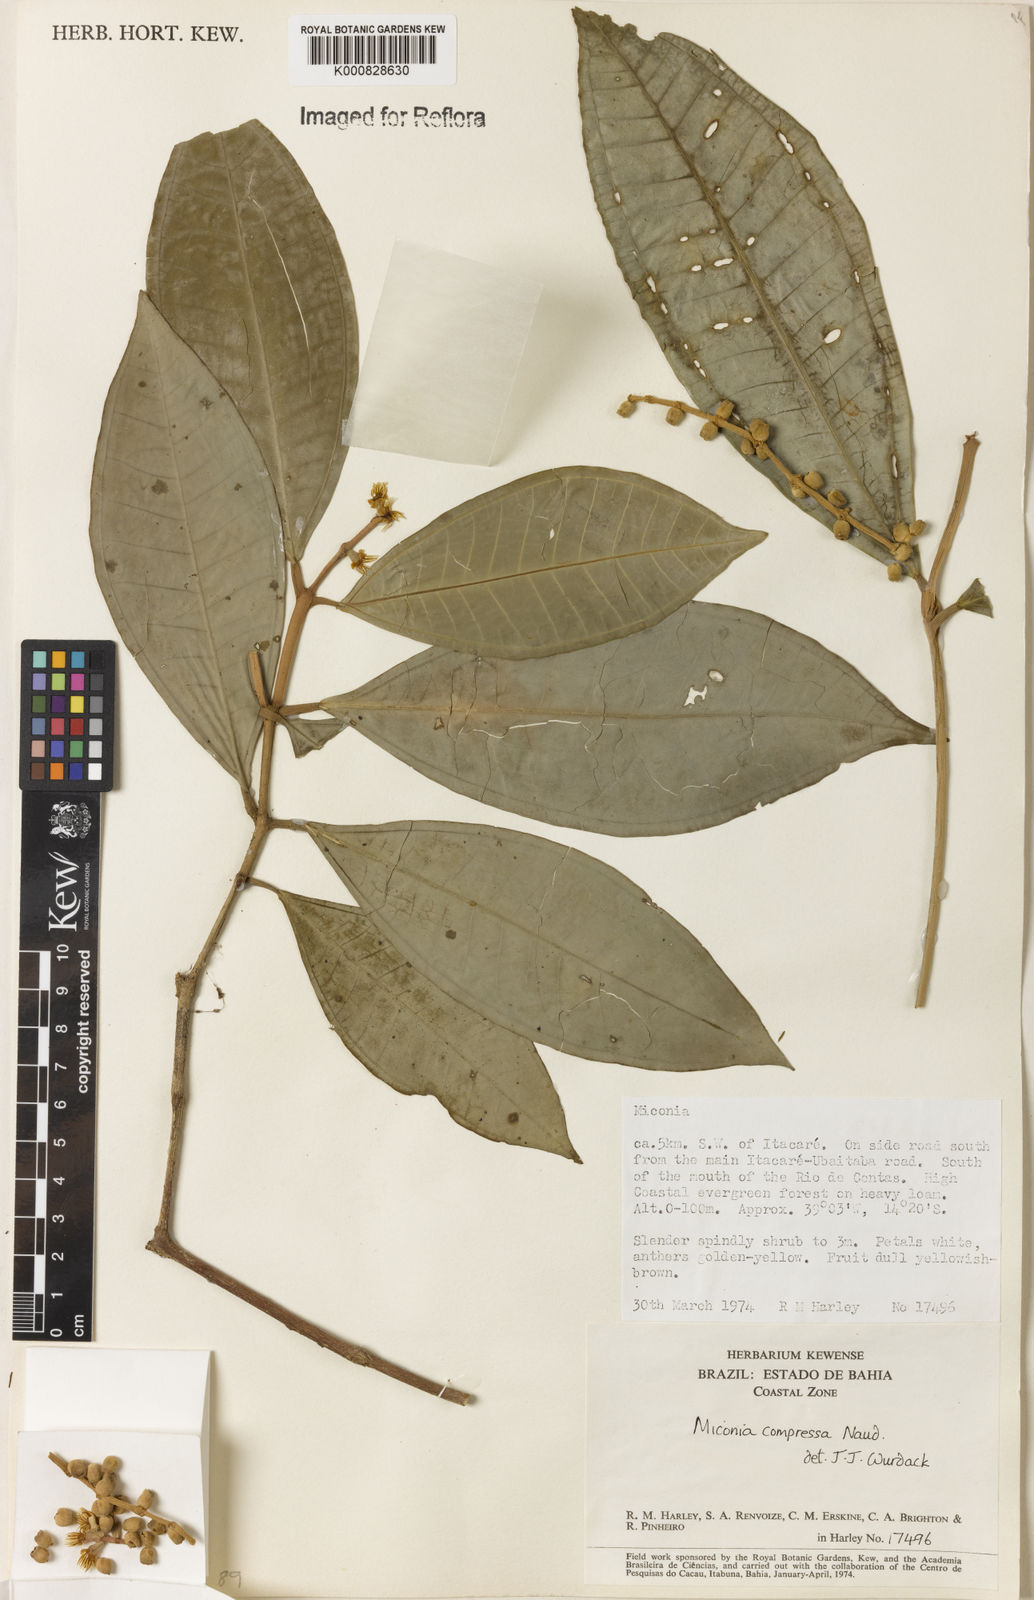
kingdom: Plantae
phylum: Tracheophyta
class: Magnoliopsida
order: Myrtales
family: Melastomataceae
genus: Miconia
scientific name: Miconia compressa
